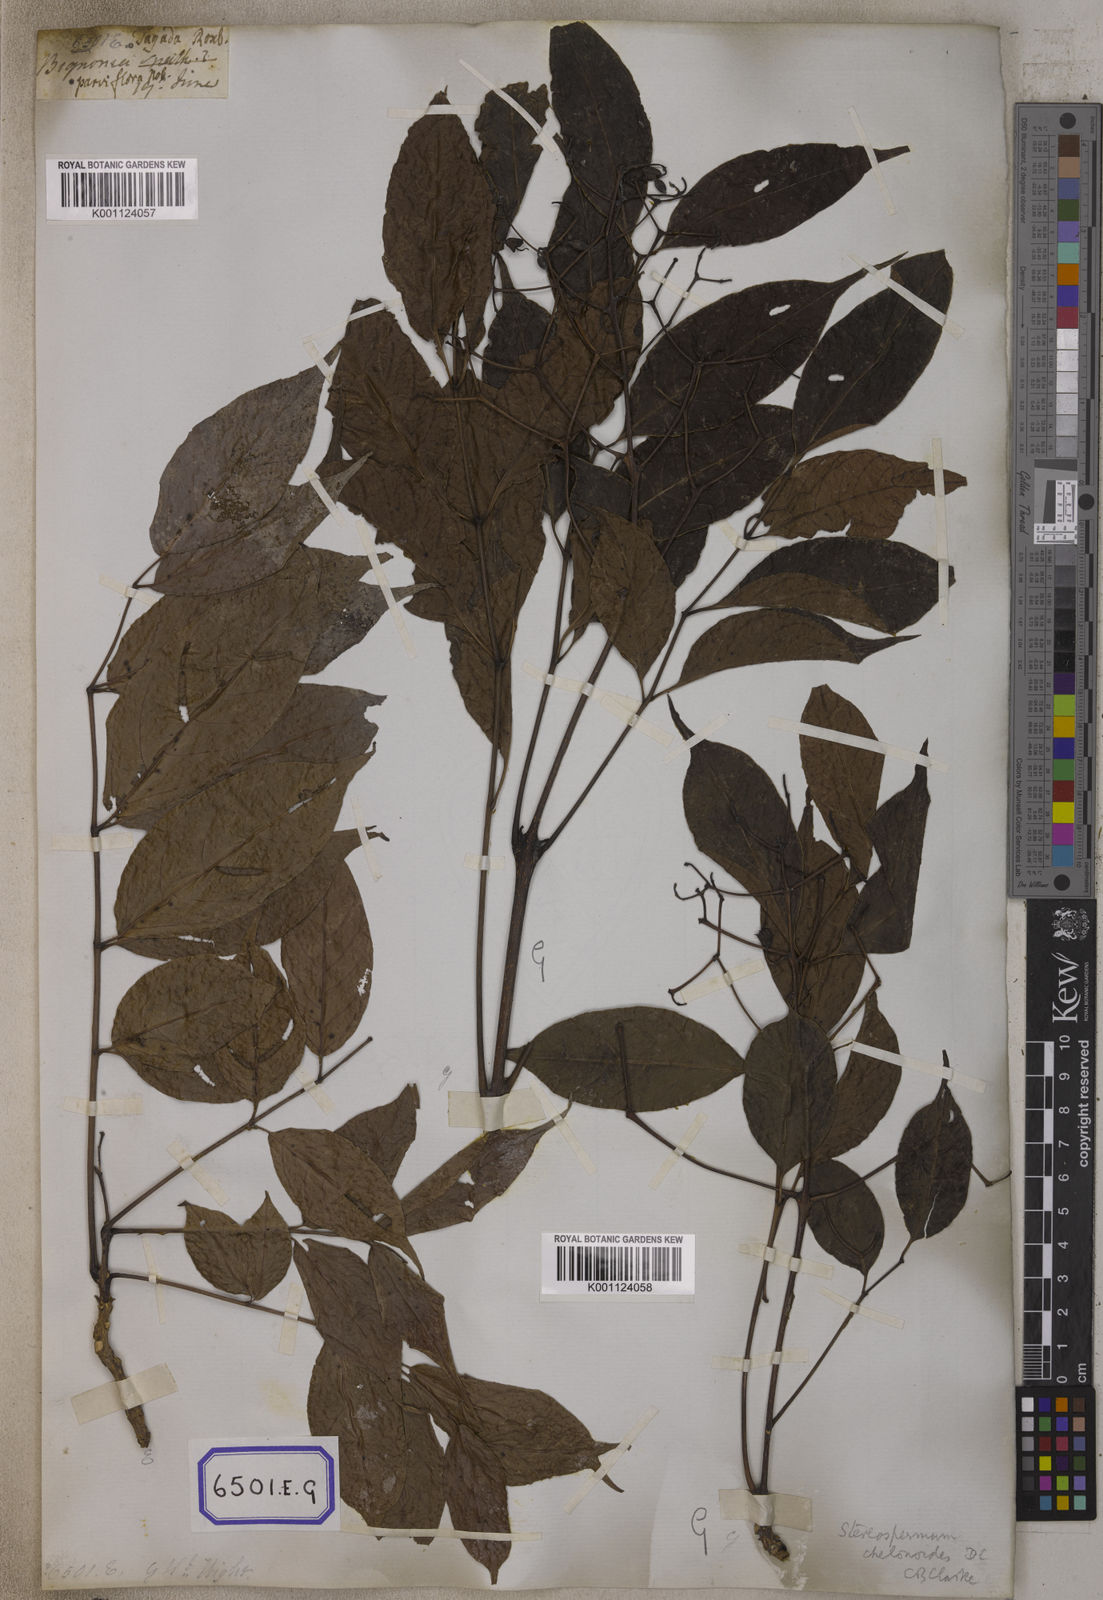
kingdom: Plantae
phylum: Tracheophyta
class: Magnoliopsida
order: Lamiales
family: Bignoniaceae
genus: Stereospermum
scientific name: Stereospermum chelonoides
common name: Fragrant padritree
